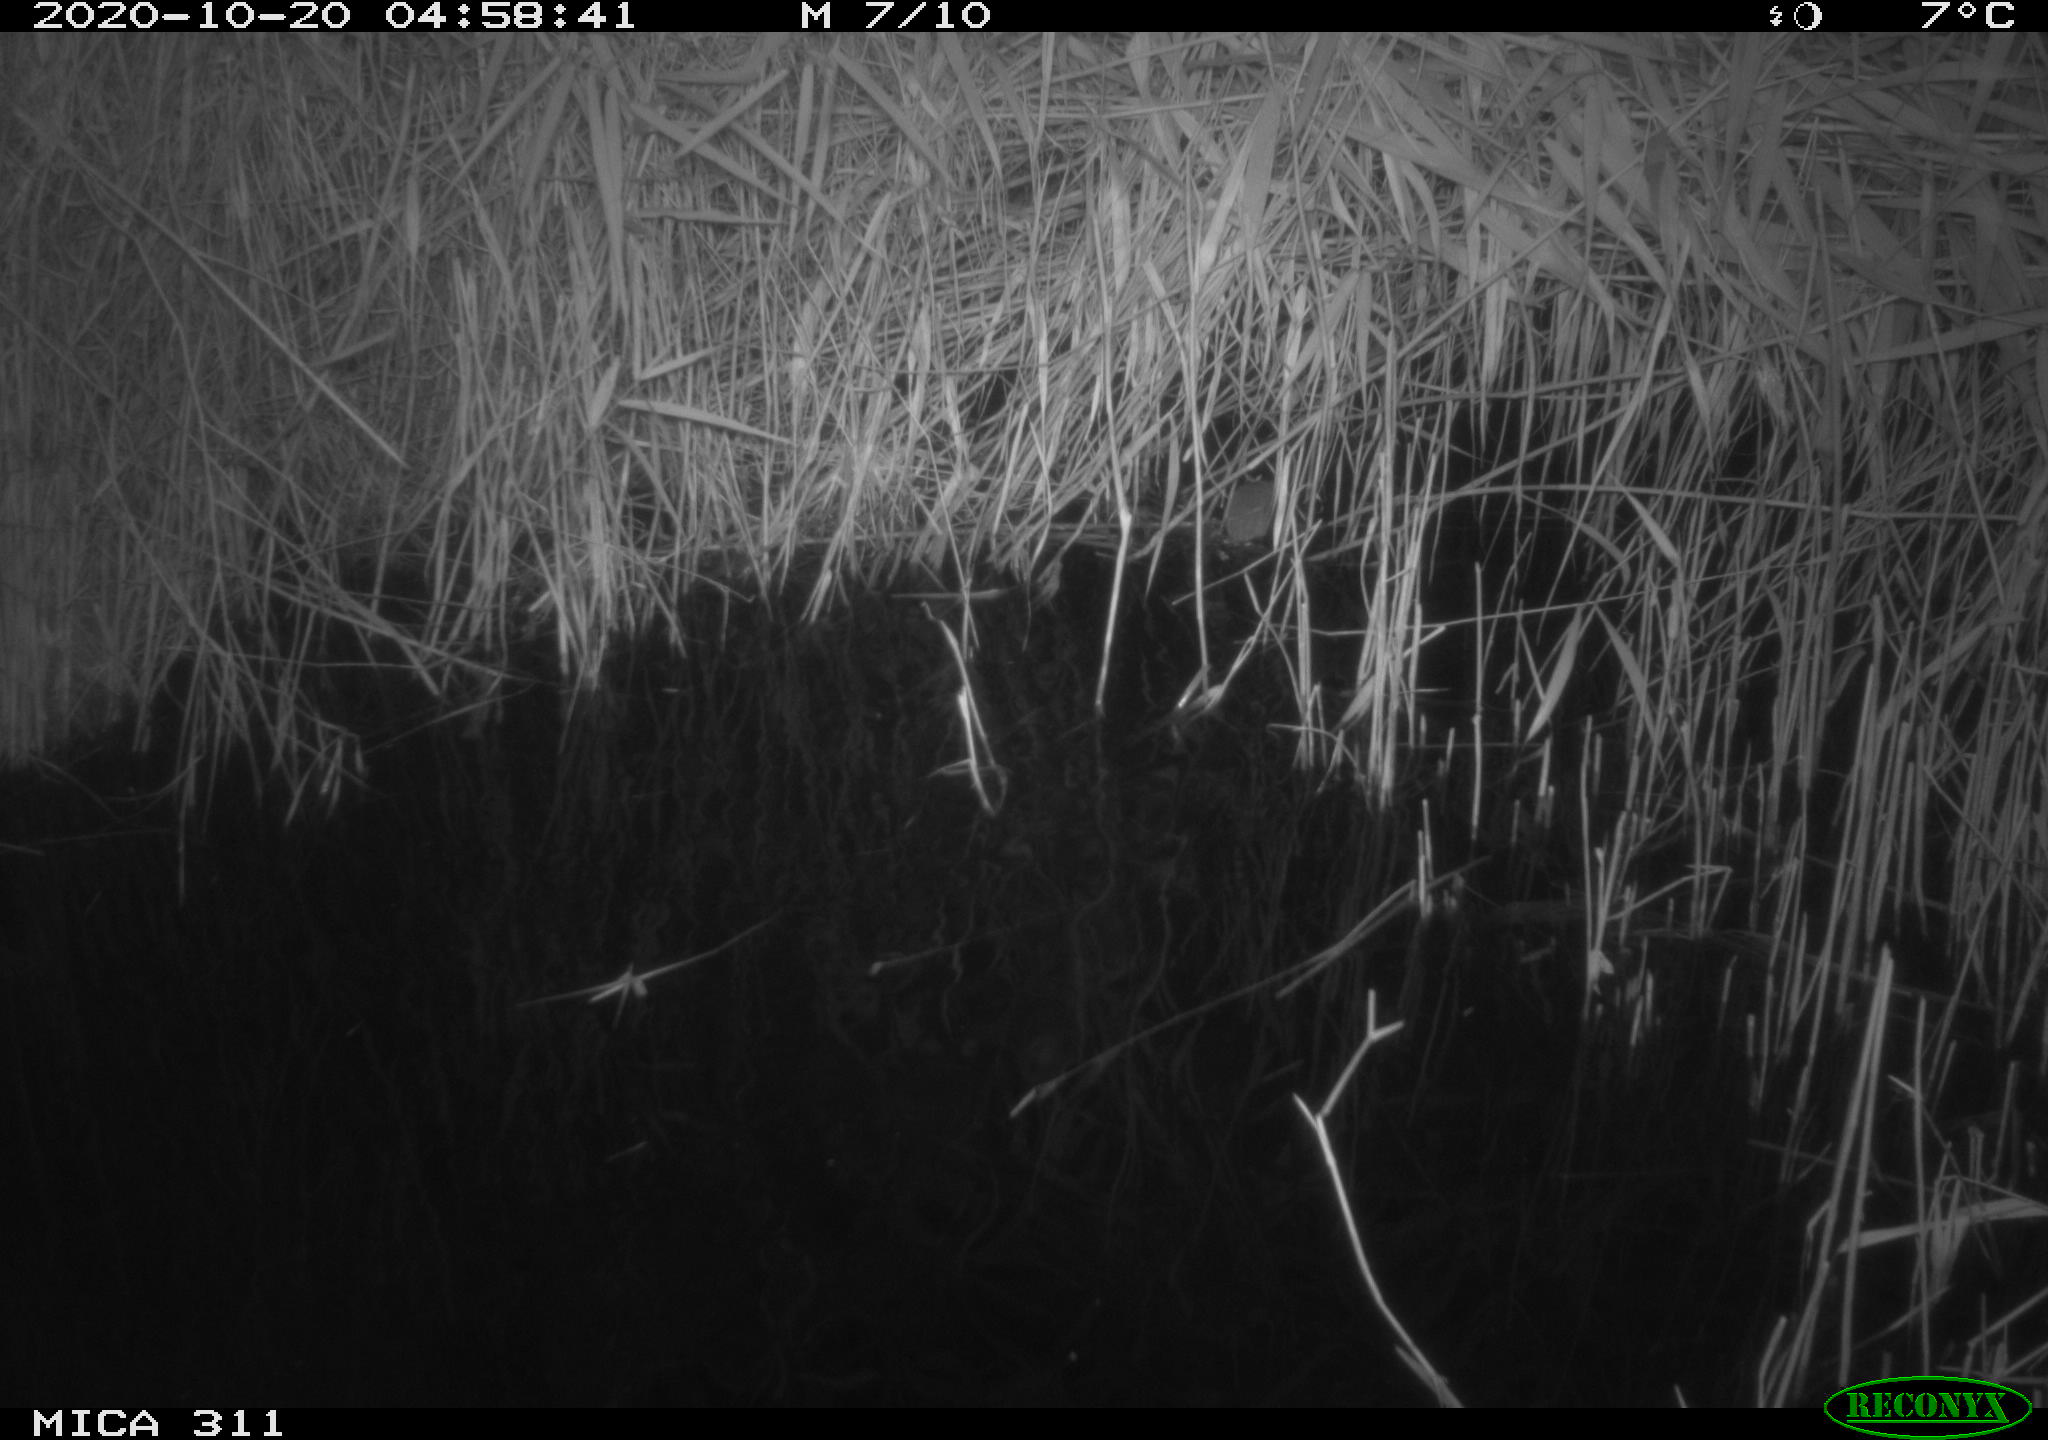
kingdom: Animalia
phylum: Chordata
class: Mammalia
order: Rodentia
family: Muridae
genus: Apodemus
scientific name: Apodemus sylvaticus
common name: Wood mouse
